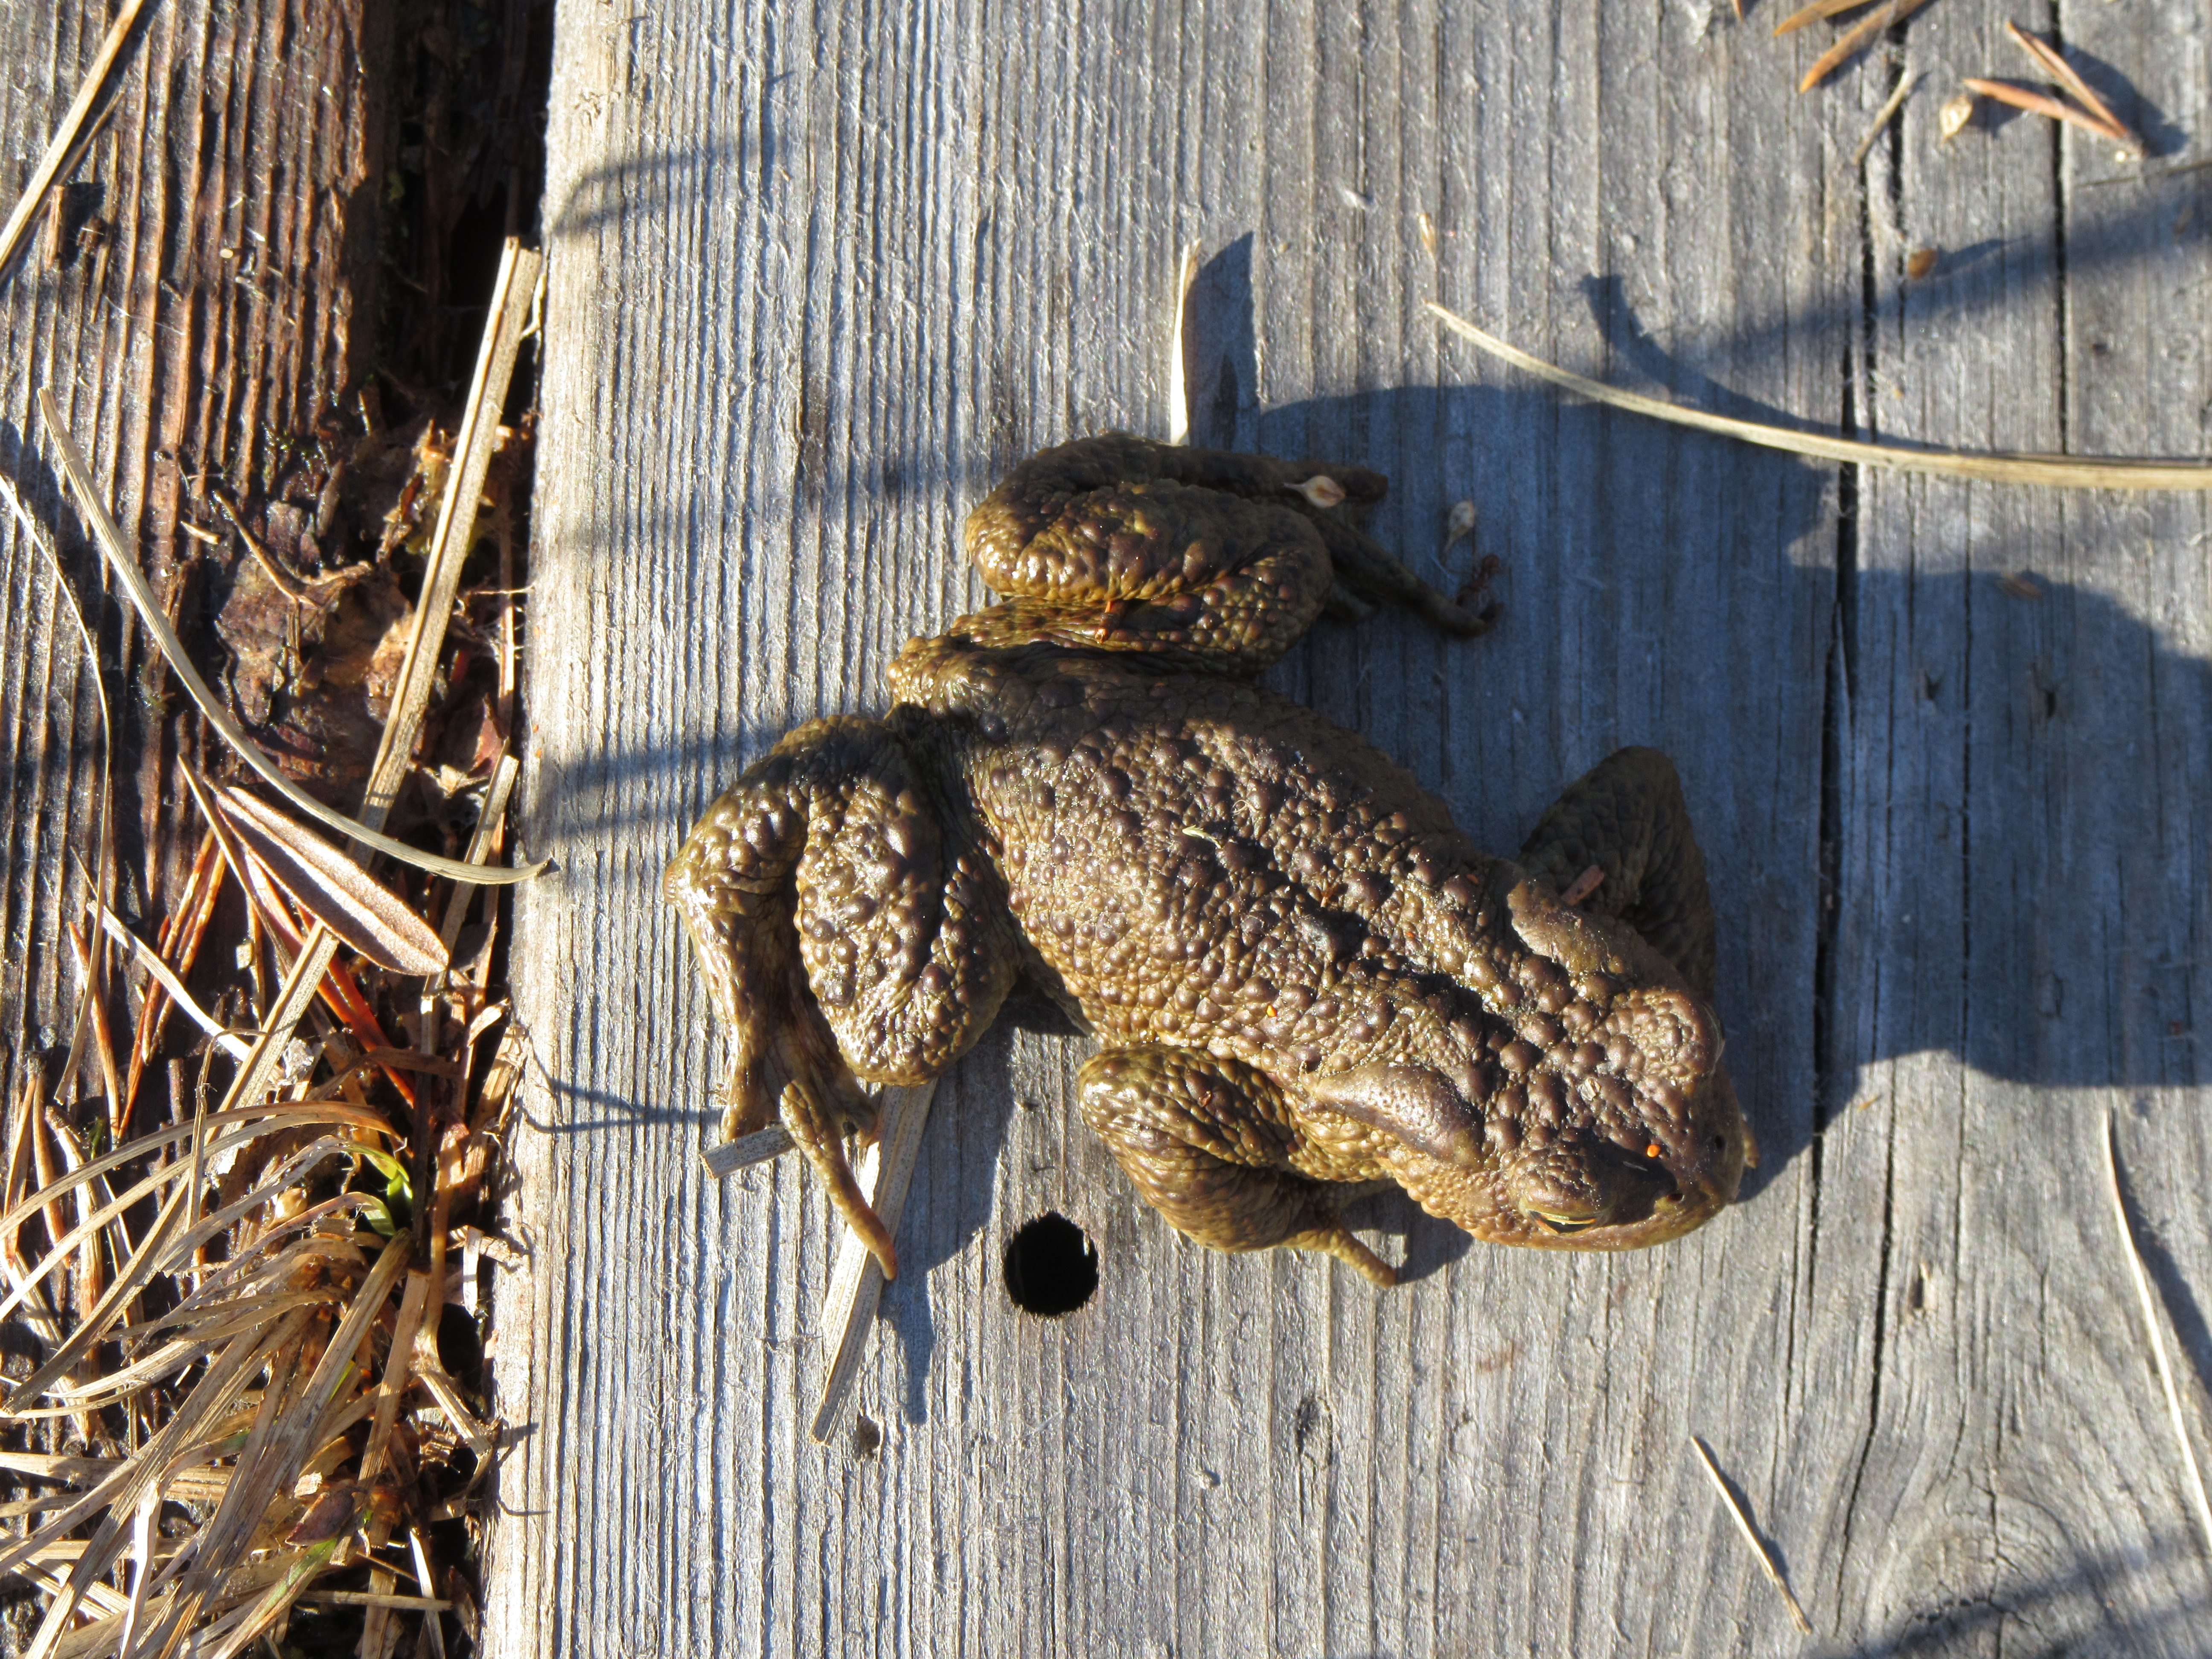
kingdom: Animalia
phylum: Chordata
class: Amphibia
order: Anura
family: Bufonidae
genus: Bufo
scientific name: Bufo bufo
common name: Common toad
